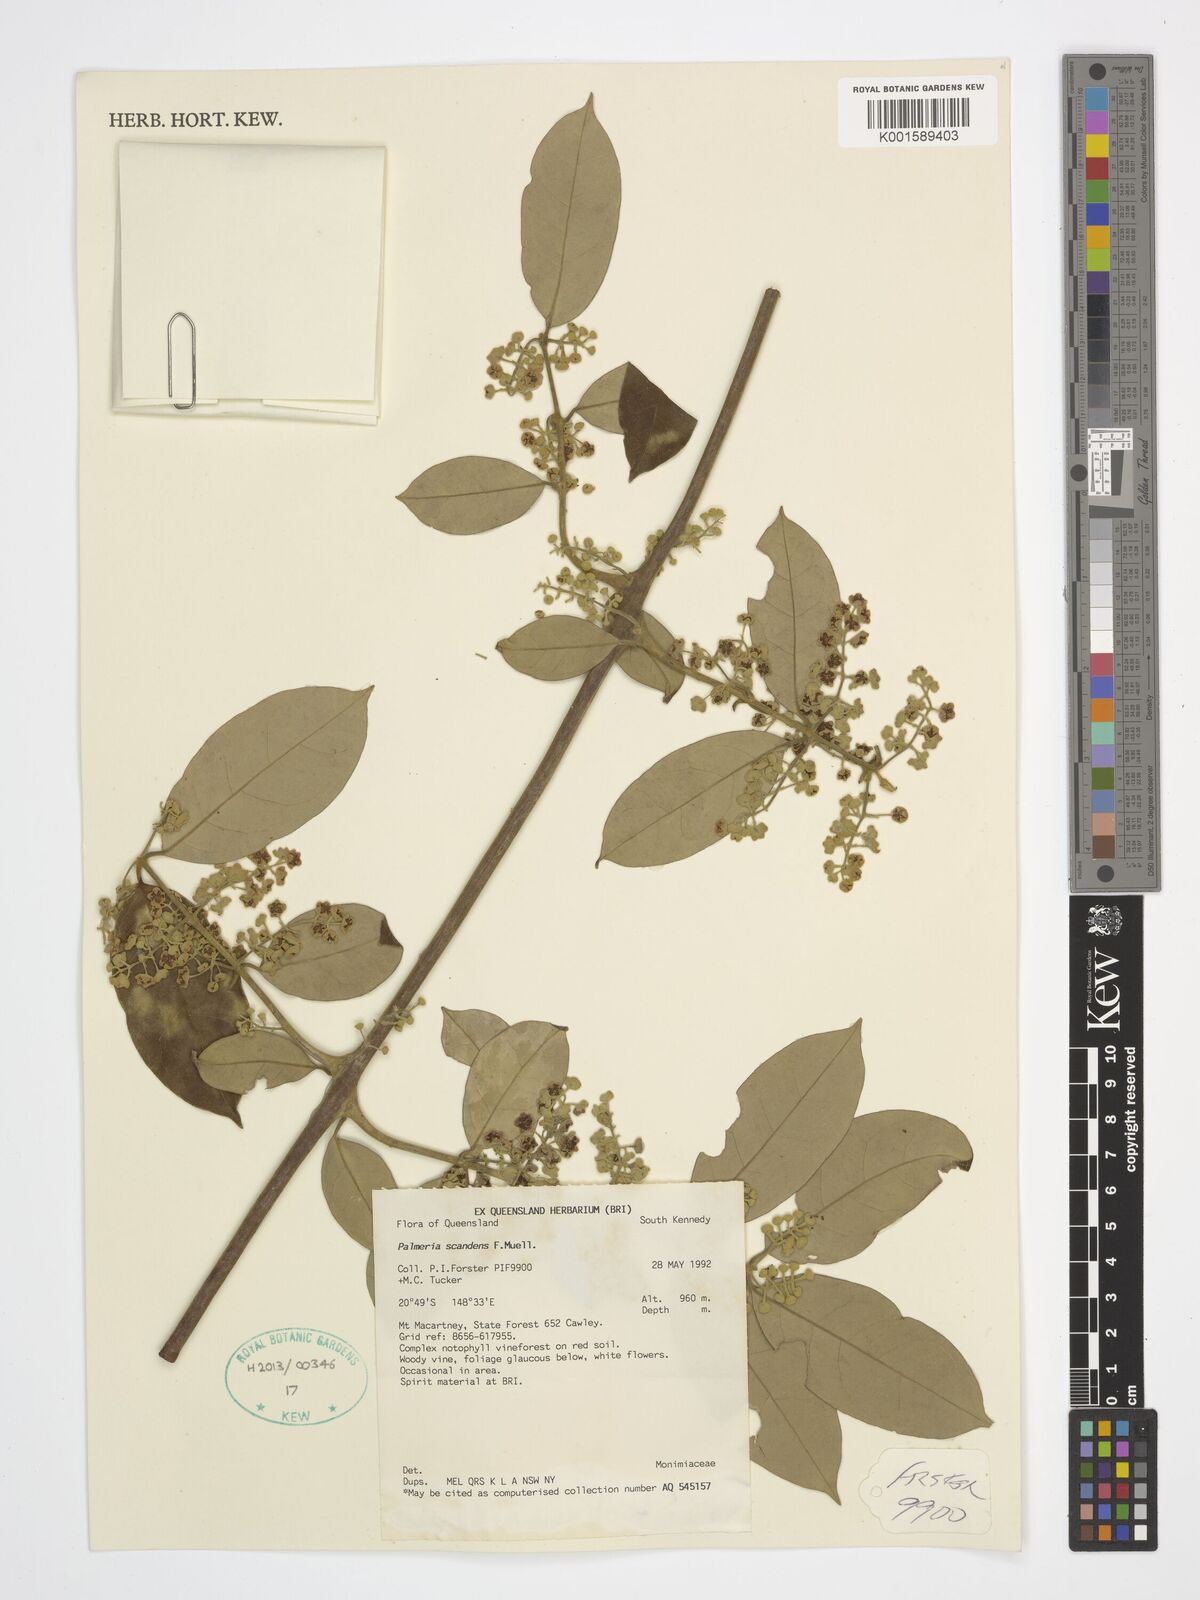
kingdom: Plantae
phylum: Tracheophyta
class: Magnoliopsida
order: Laurales
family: Monimiaceae
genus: Palmeria
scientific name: Palmeria scandens
